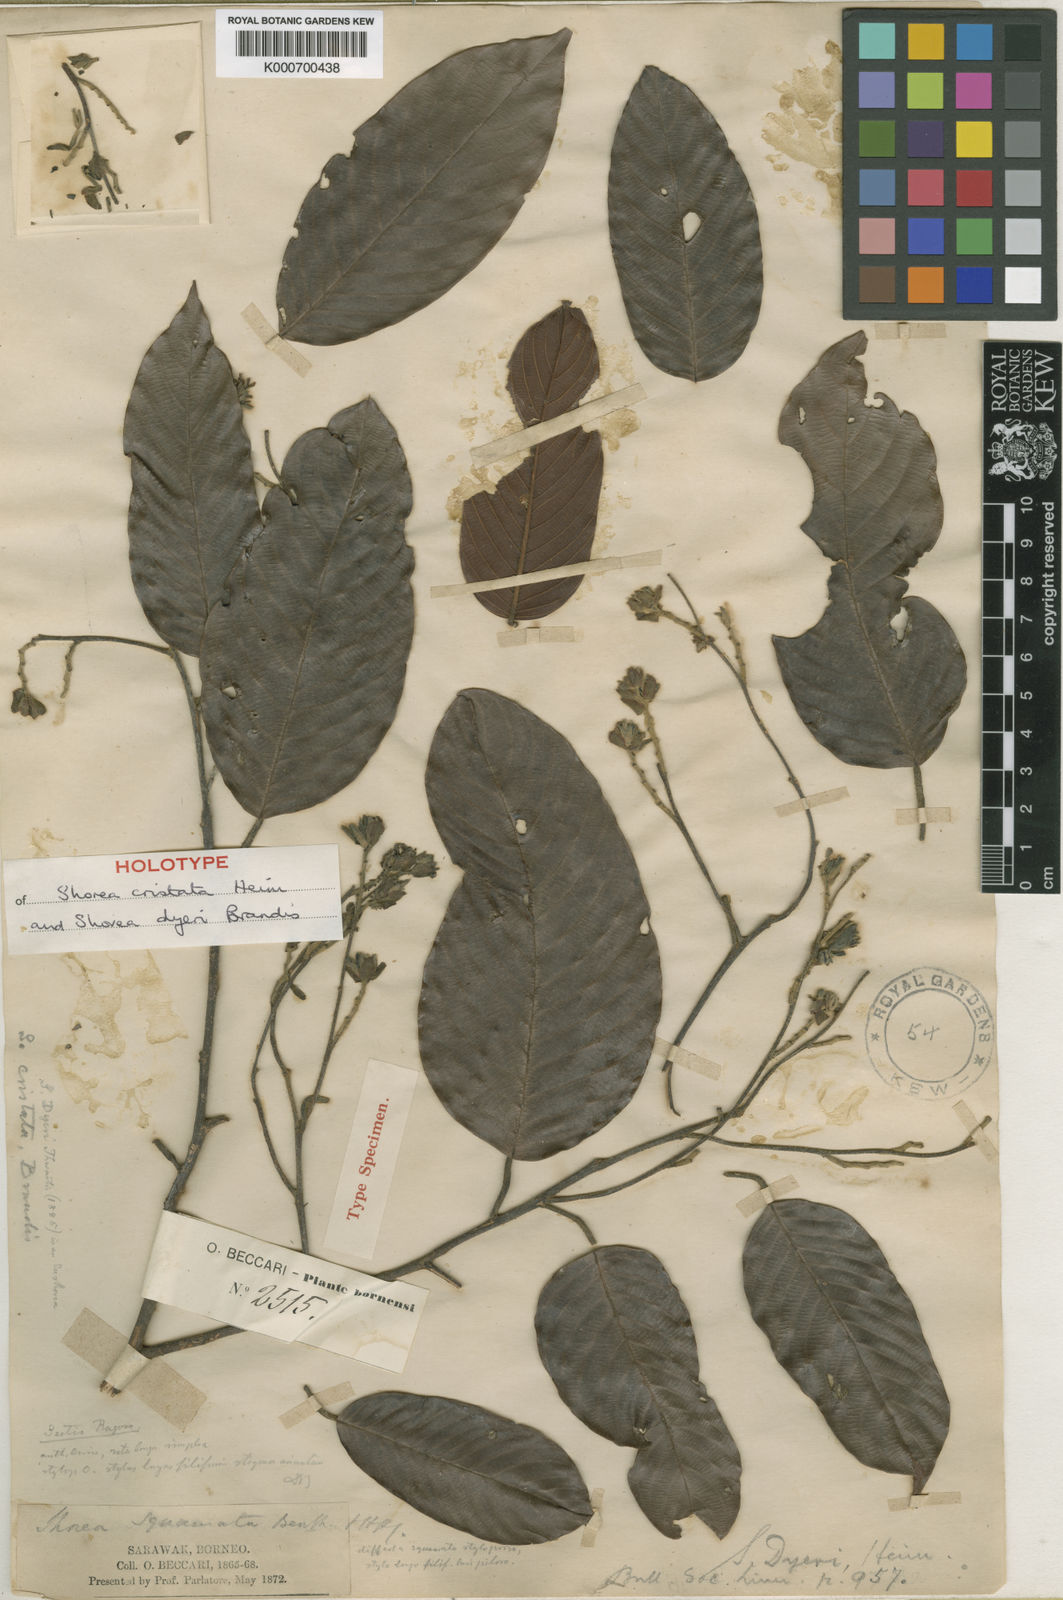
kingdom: Plantae
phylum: Tracheophyta
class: Magnoliopsida
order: Malvales
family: Dipterocarpaceae
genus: Shorea
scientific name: Shorea parvistipulata
